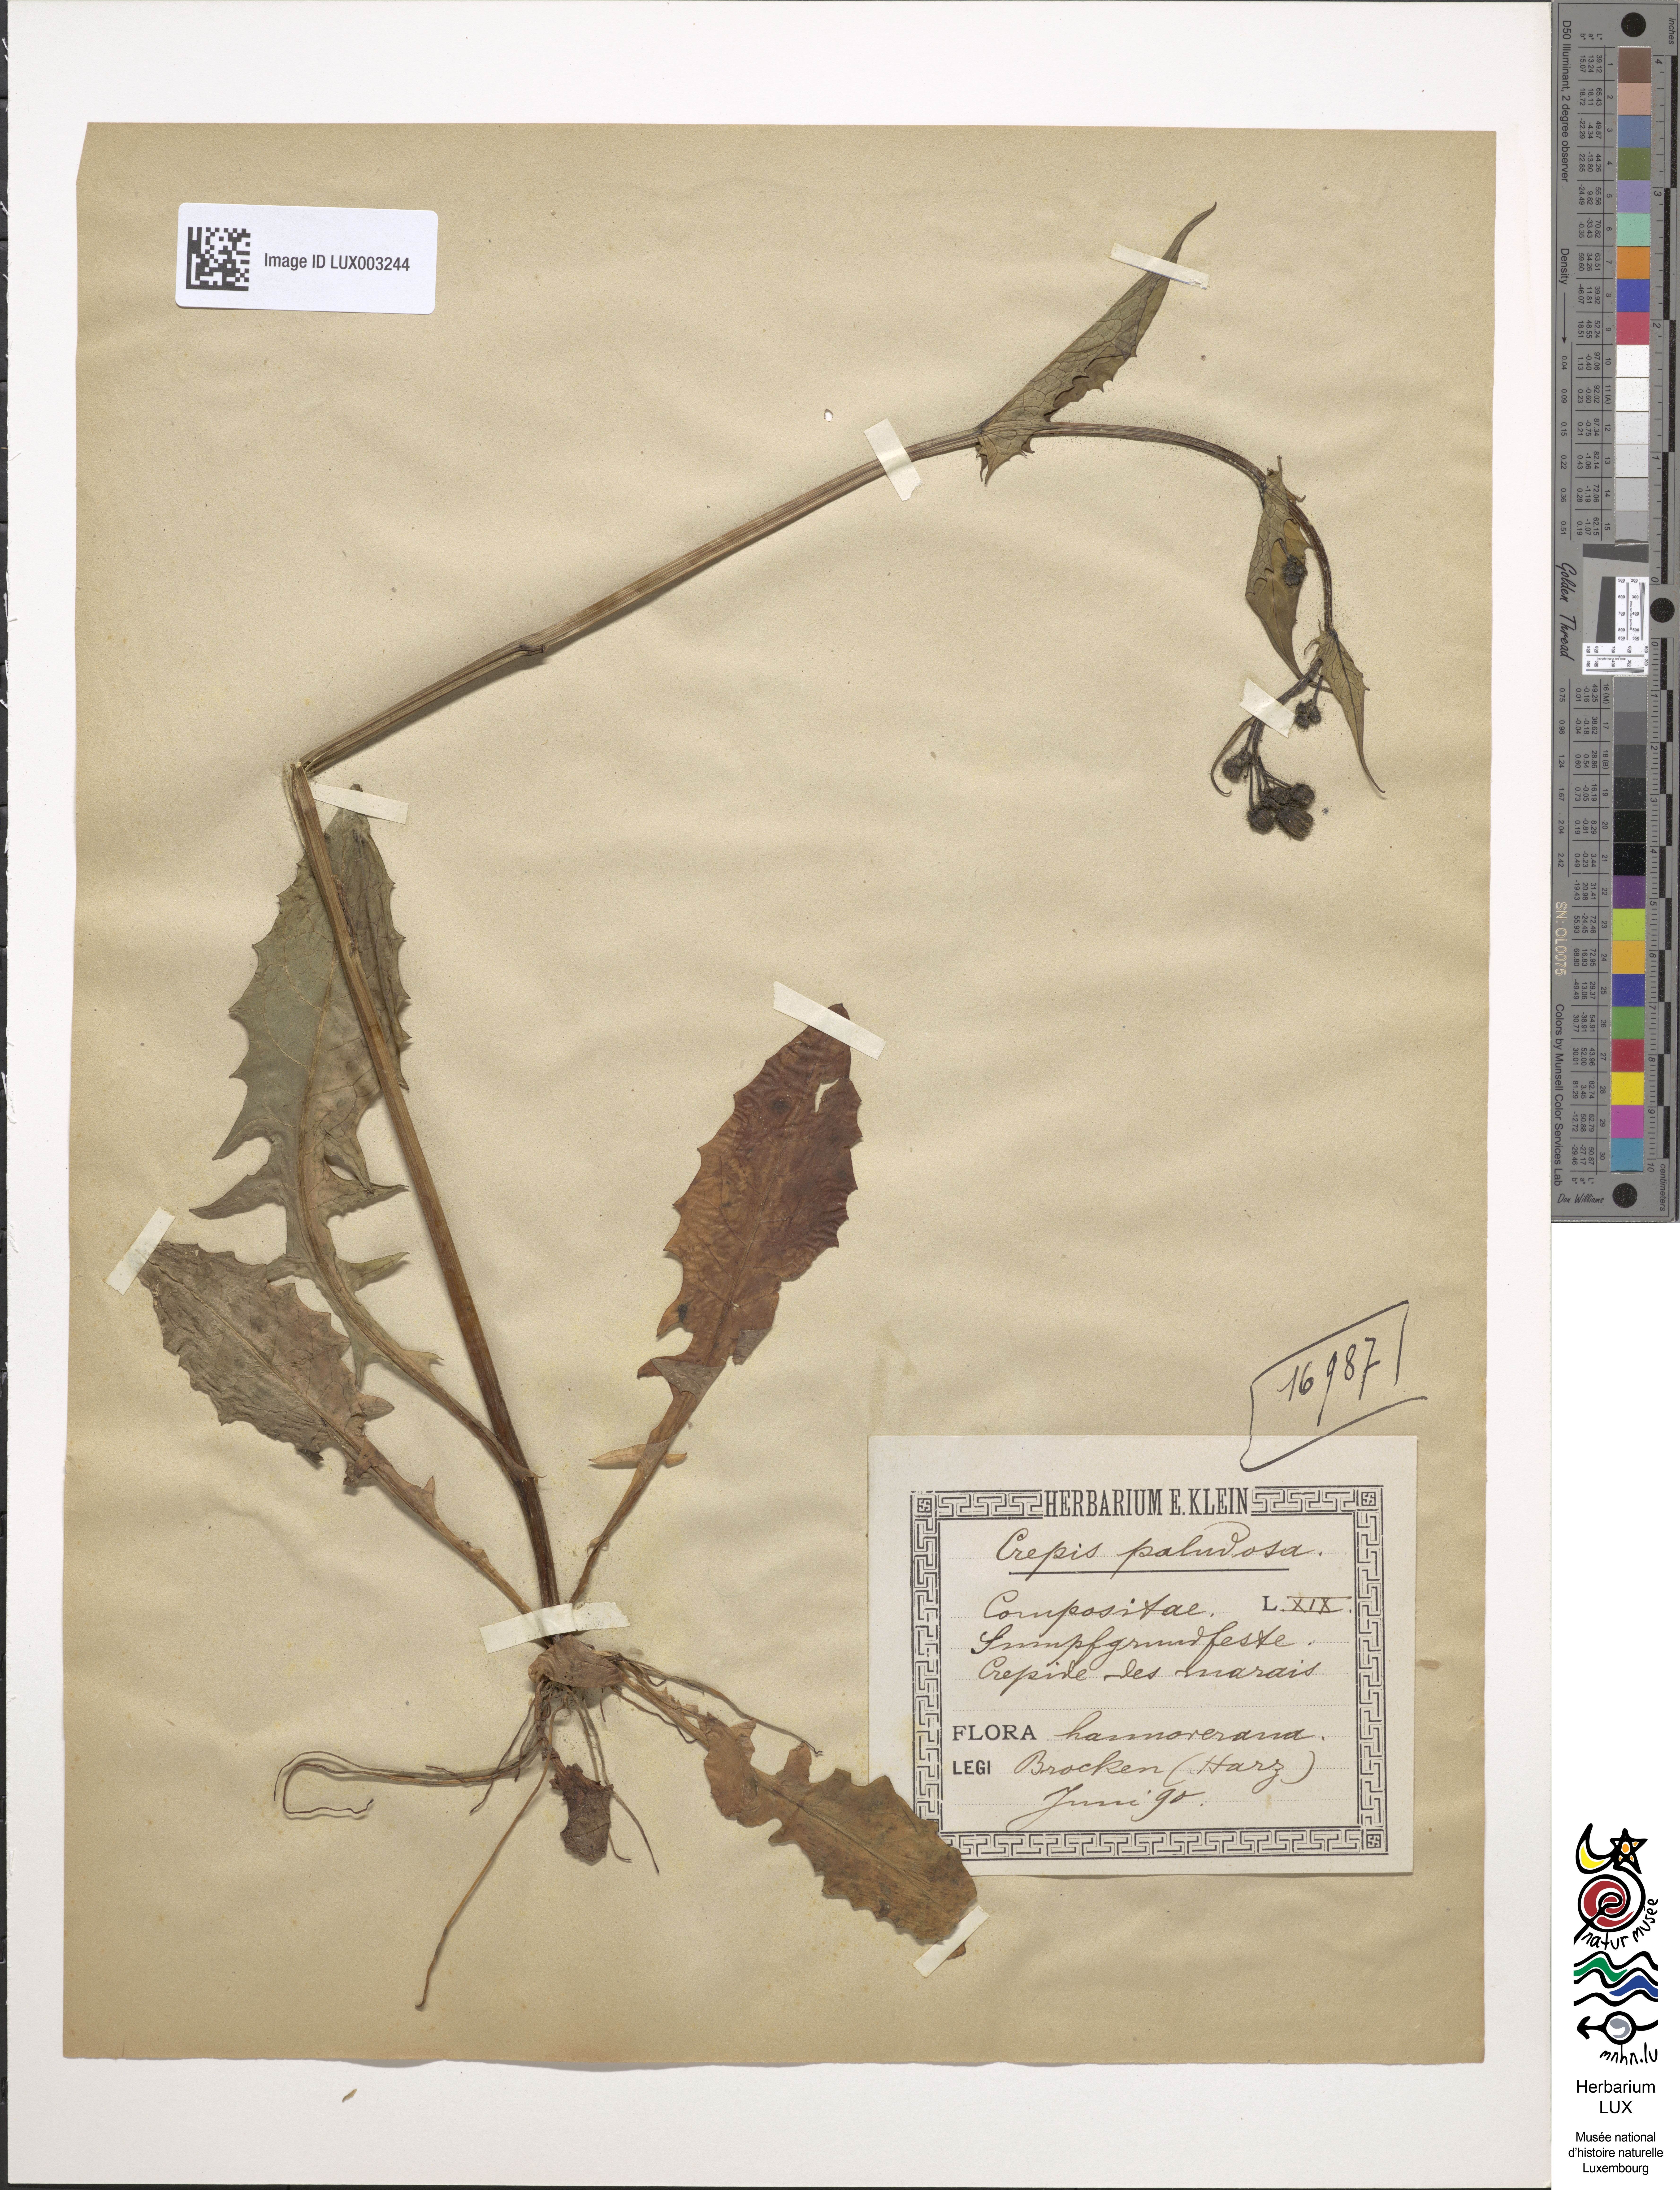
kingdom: Plantae
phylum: Tracheophyta
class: Magnoliopsida
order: Asterales
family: Asteraceae
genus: Crepis
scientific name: Crepis paludosa
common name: Marsh hawk's-beard
